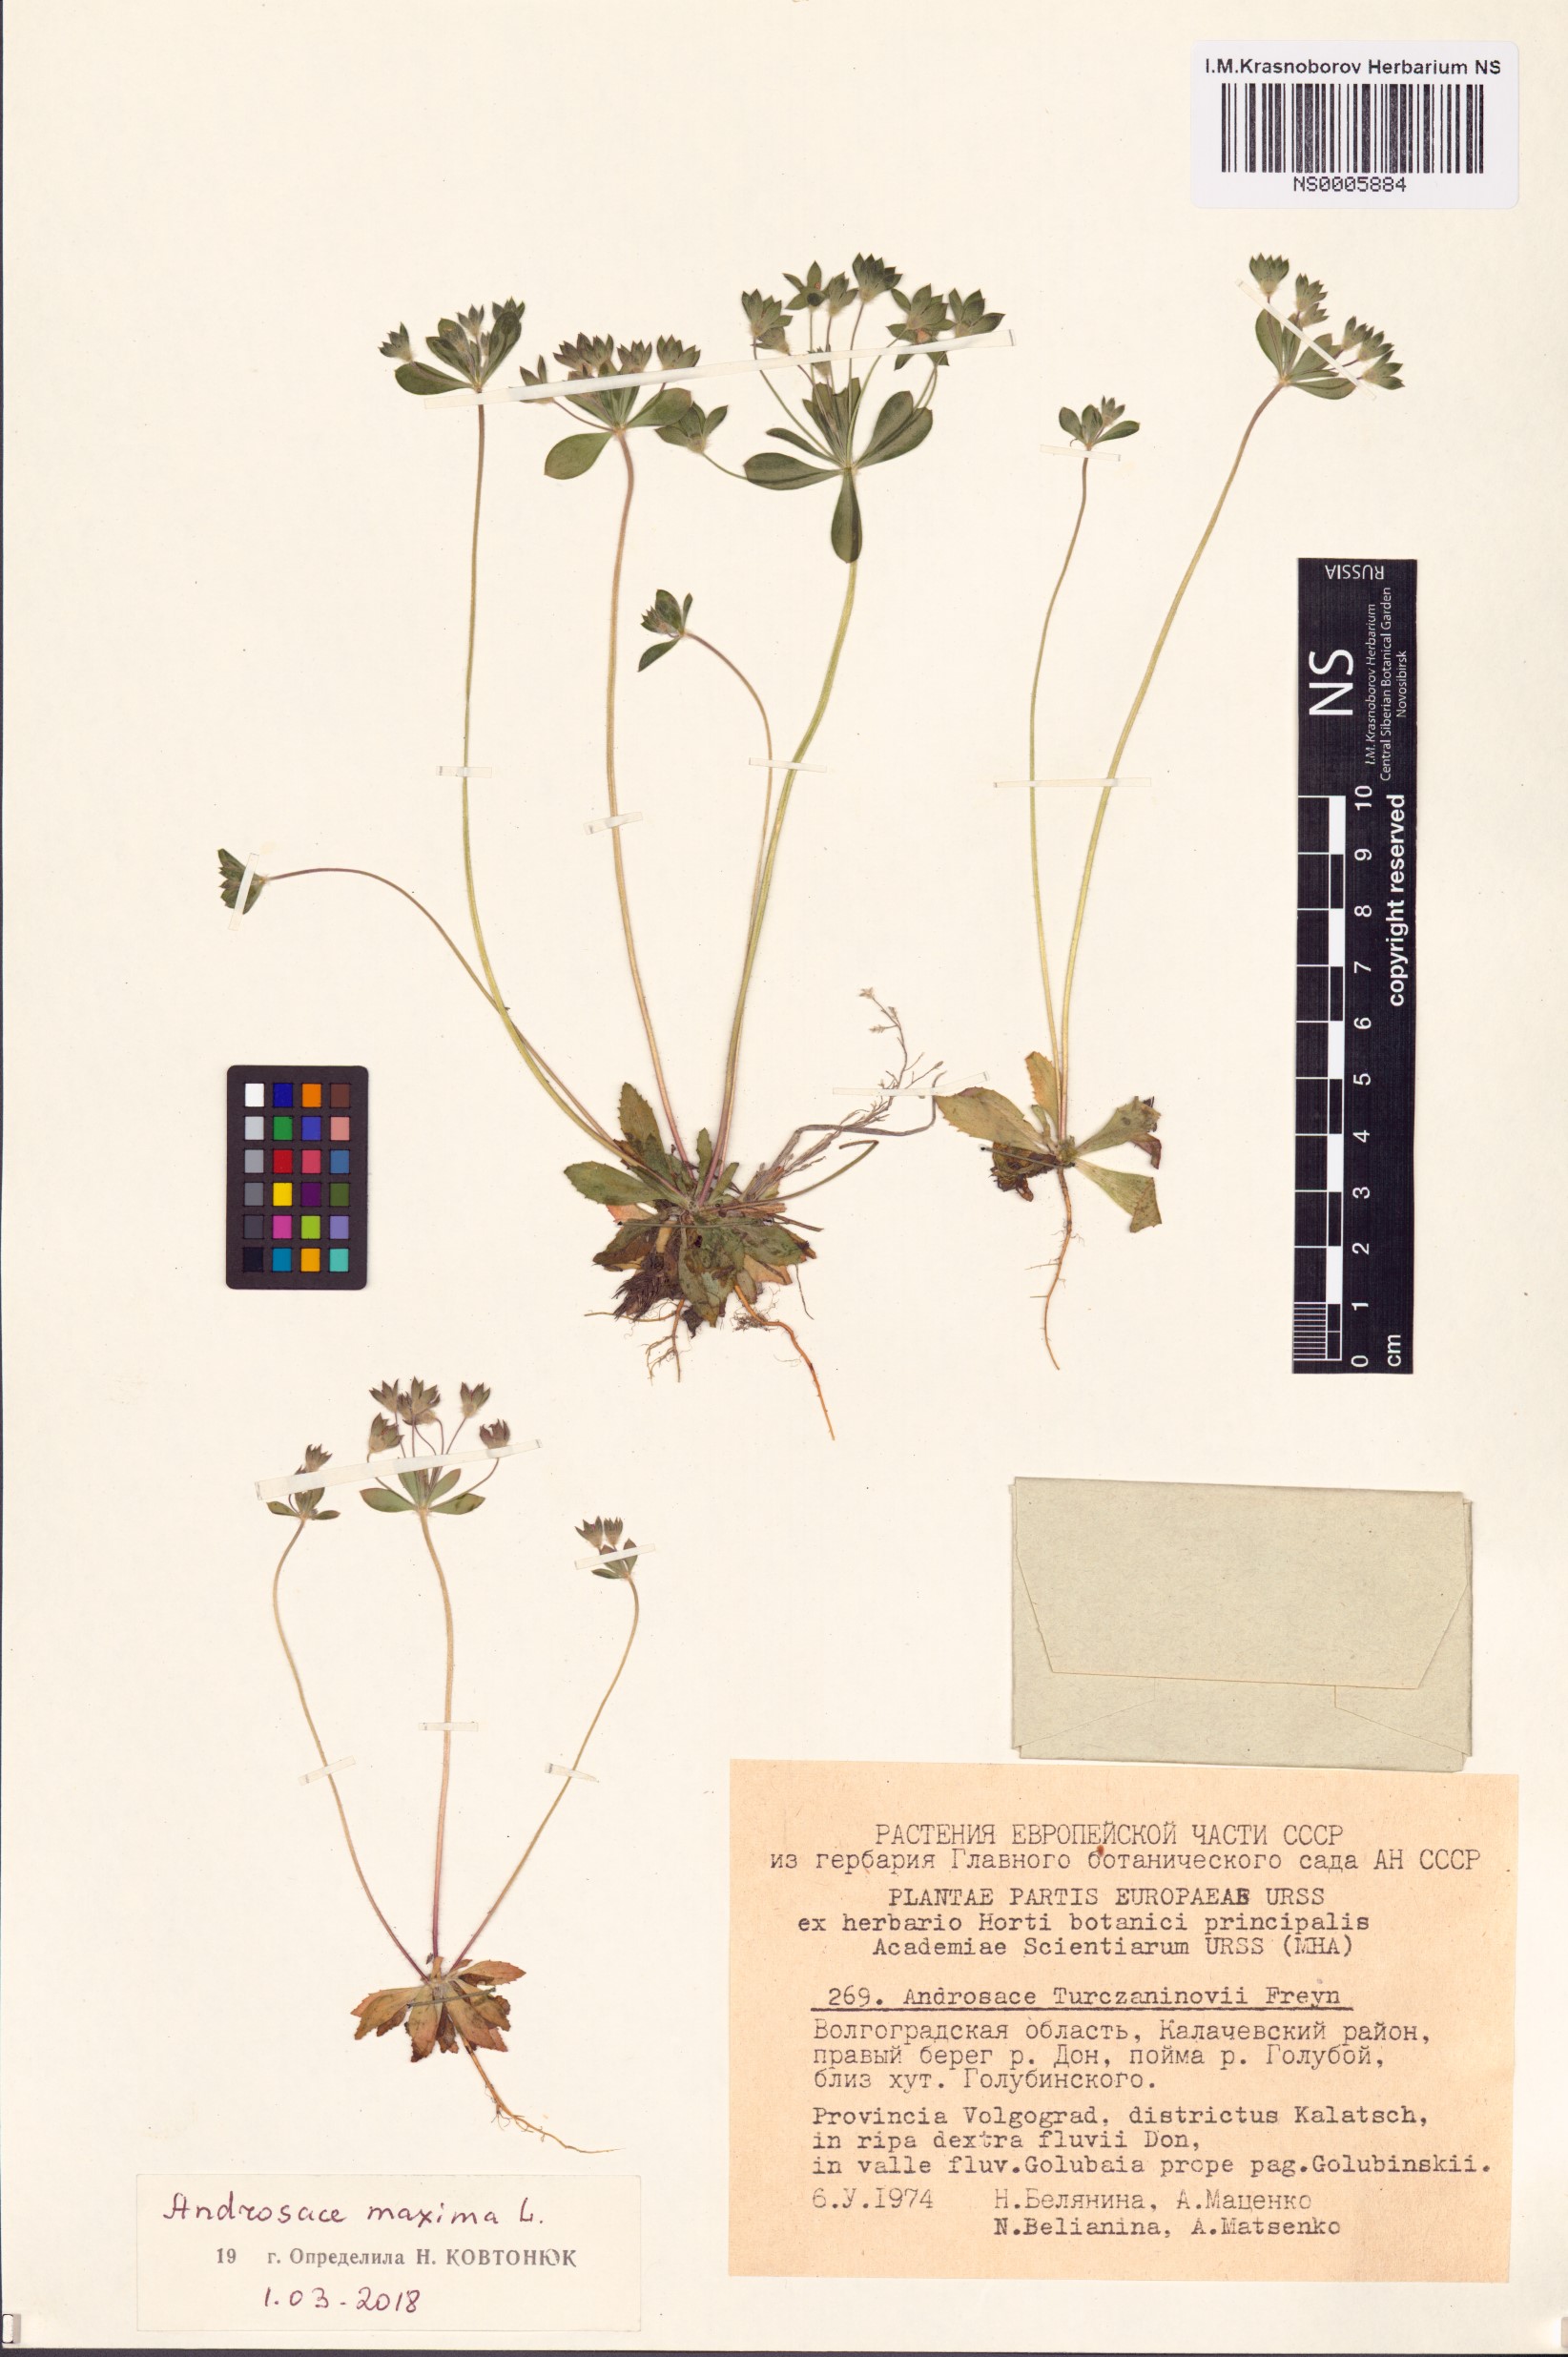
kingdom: Plantae
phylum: Tracheophyta
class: Magnoliopsida
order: Ericales
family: Primulaceae
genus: Androsace
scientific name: Androsace maxima
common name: Annual androsace
